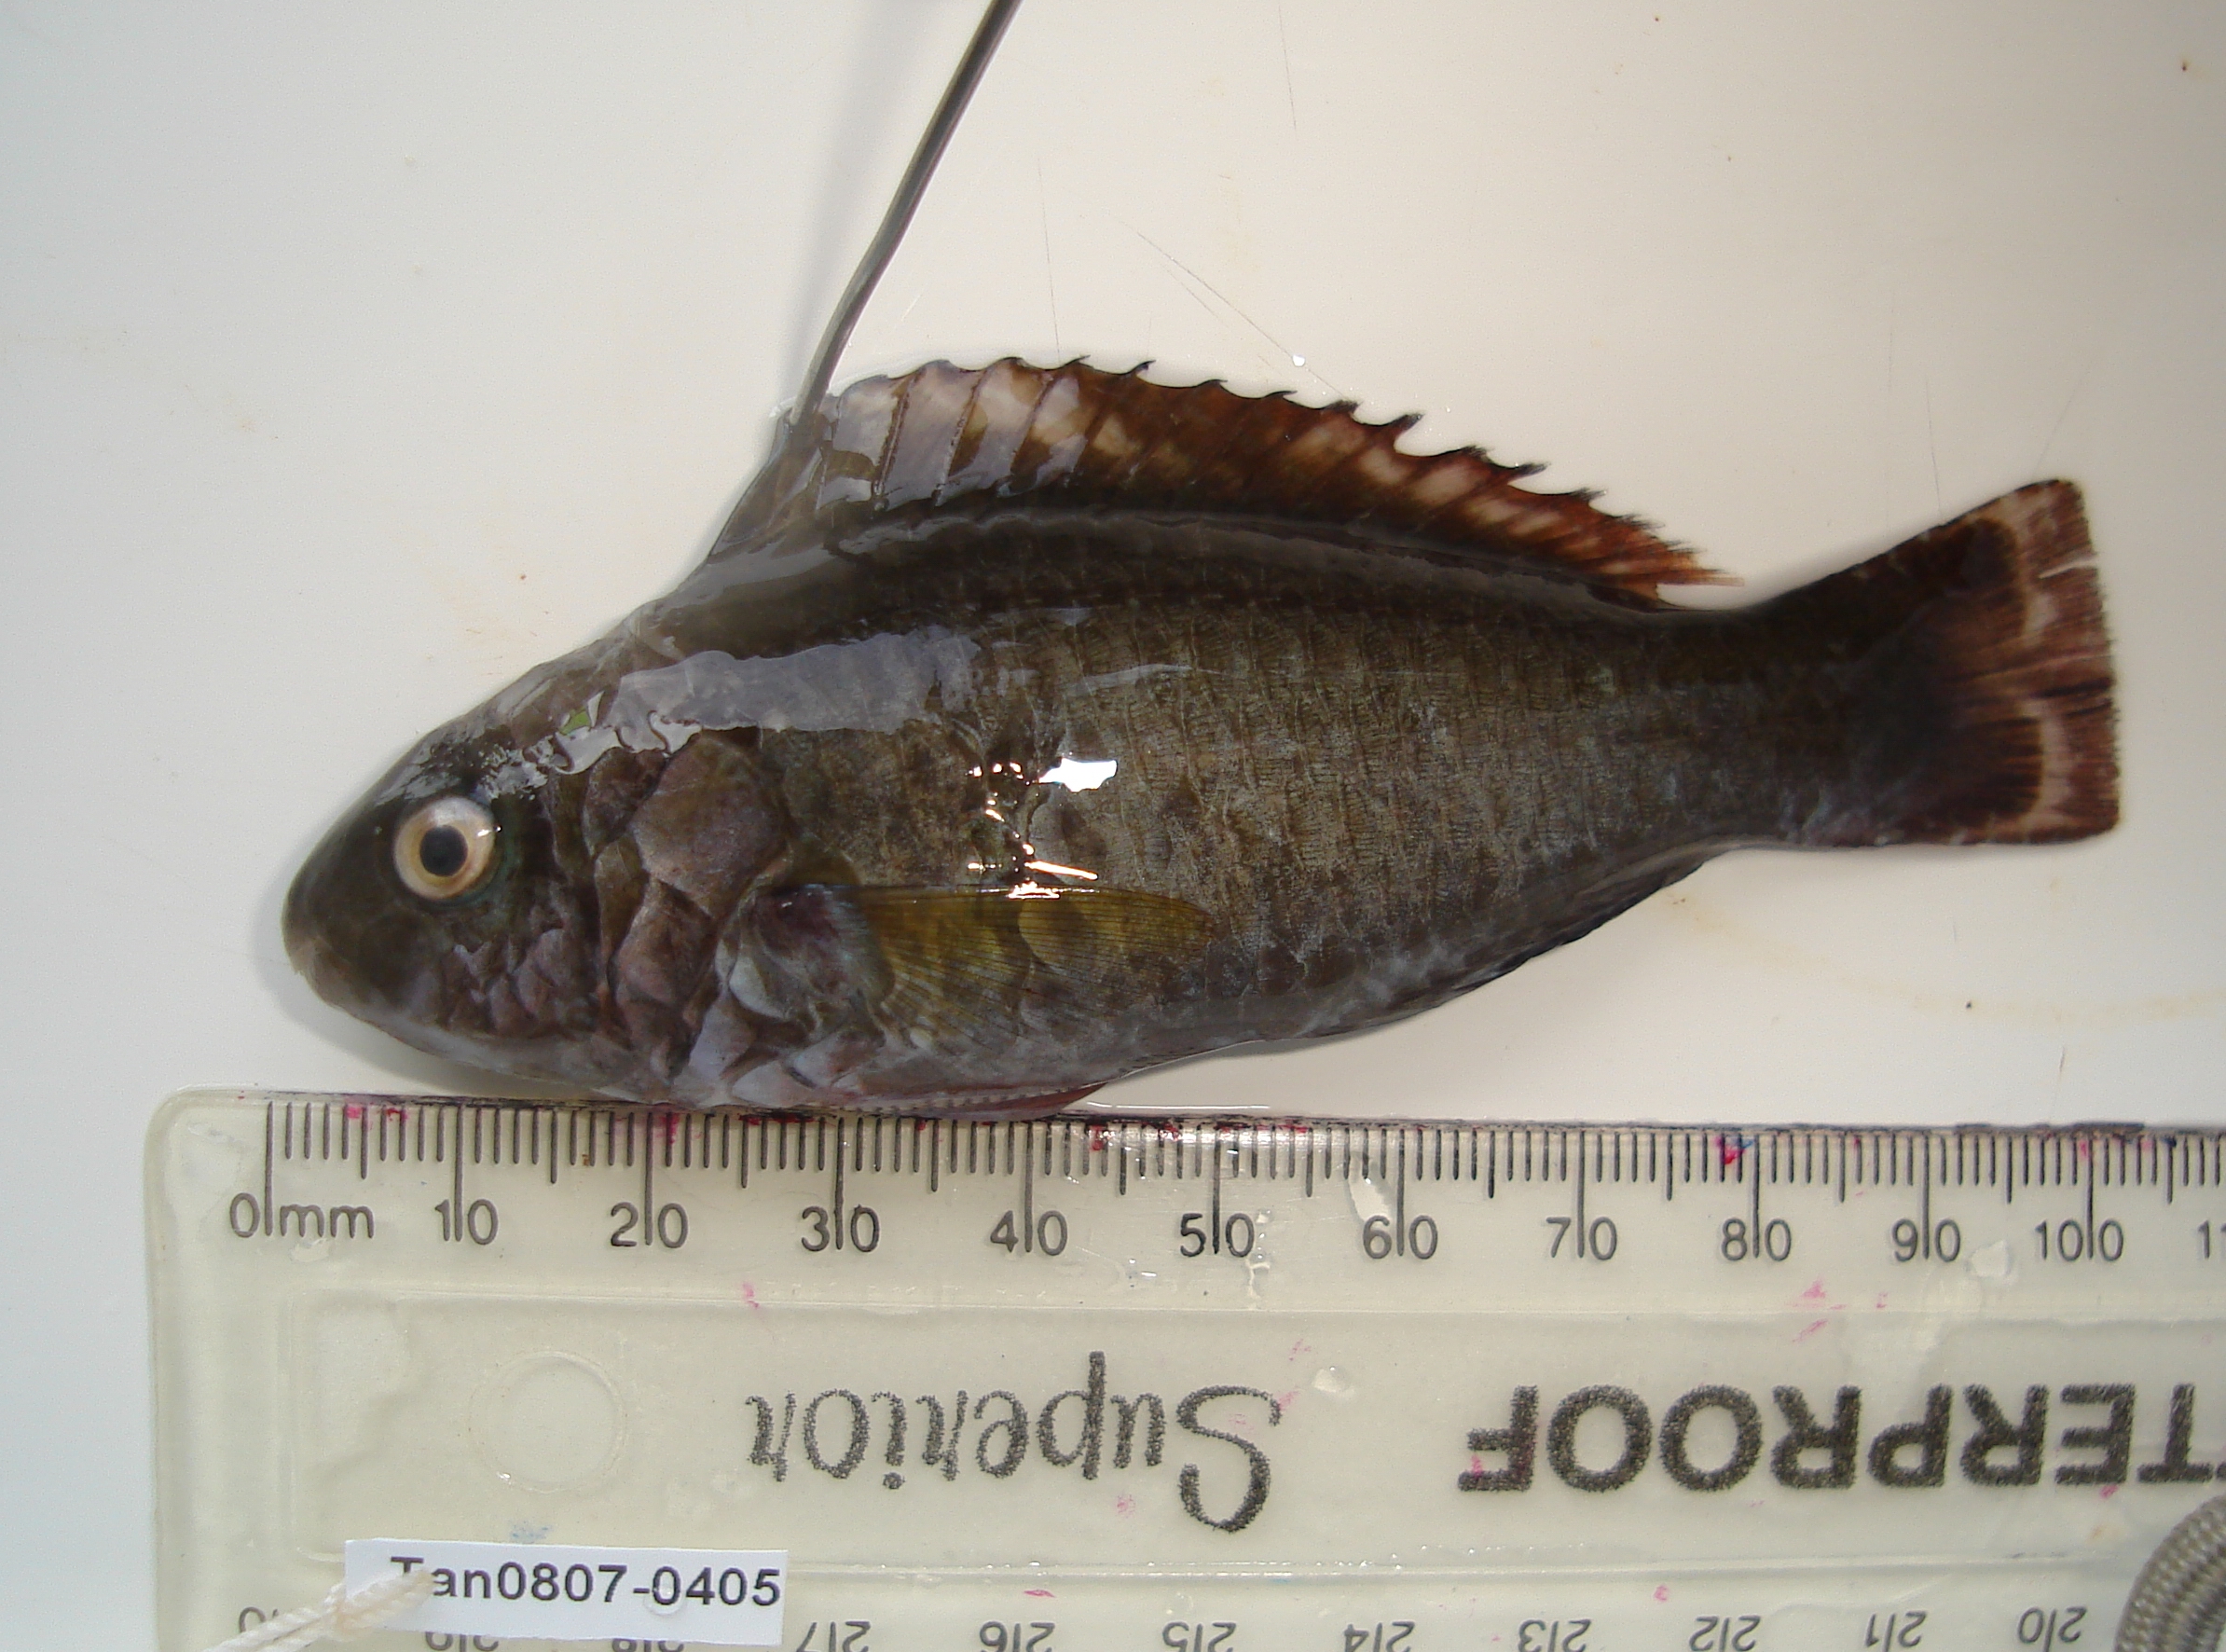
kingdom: Animalia
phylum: Chordata
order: Perciformes
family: Scaridae
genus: Scarus
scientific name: Scarus psittacus
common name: Palenose parrotfish
